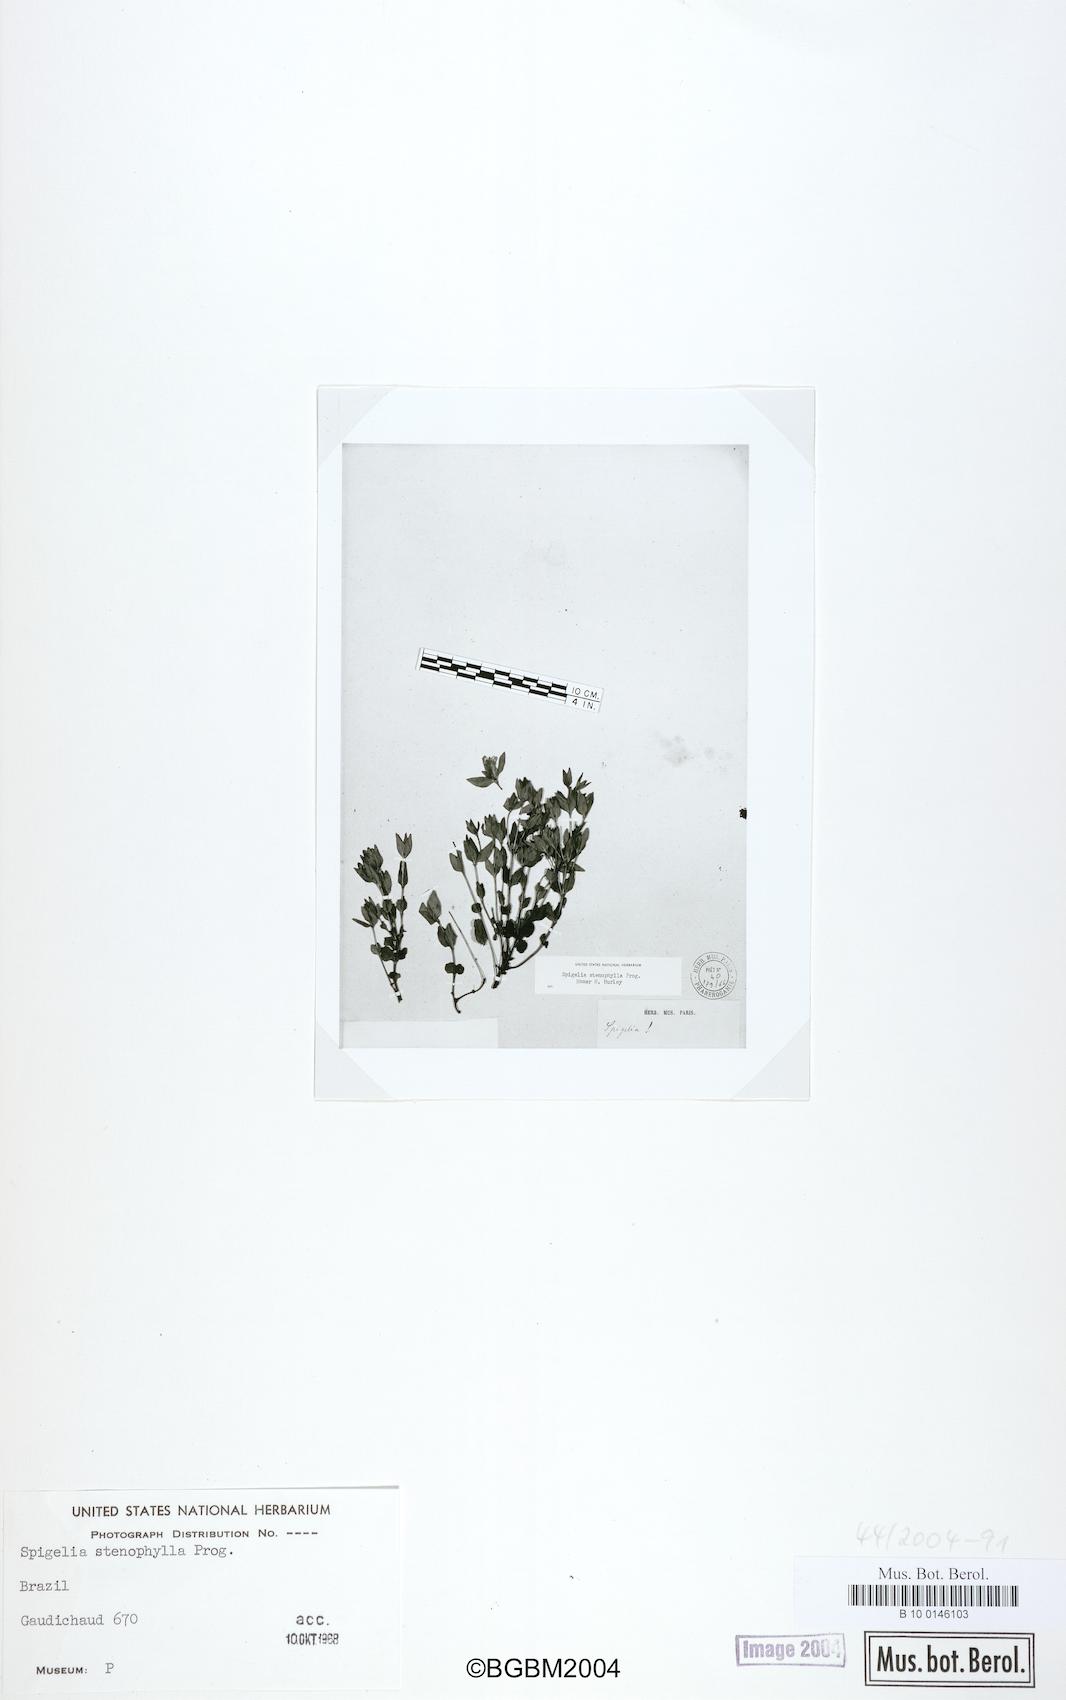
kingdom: Plantae
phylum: Tracheophyta
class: Magnoliopsida
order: Gentianales
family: Loganiaceae
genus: Spigelia
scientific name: Spigelia stenophylla
